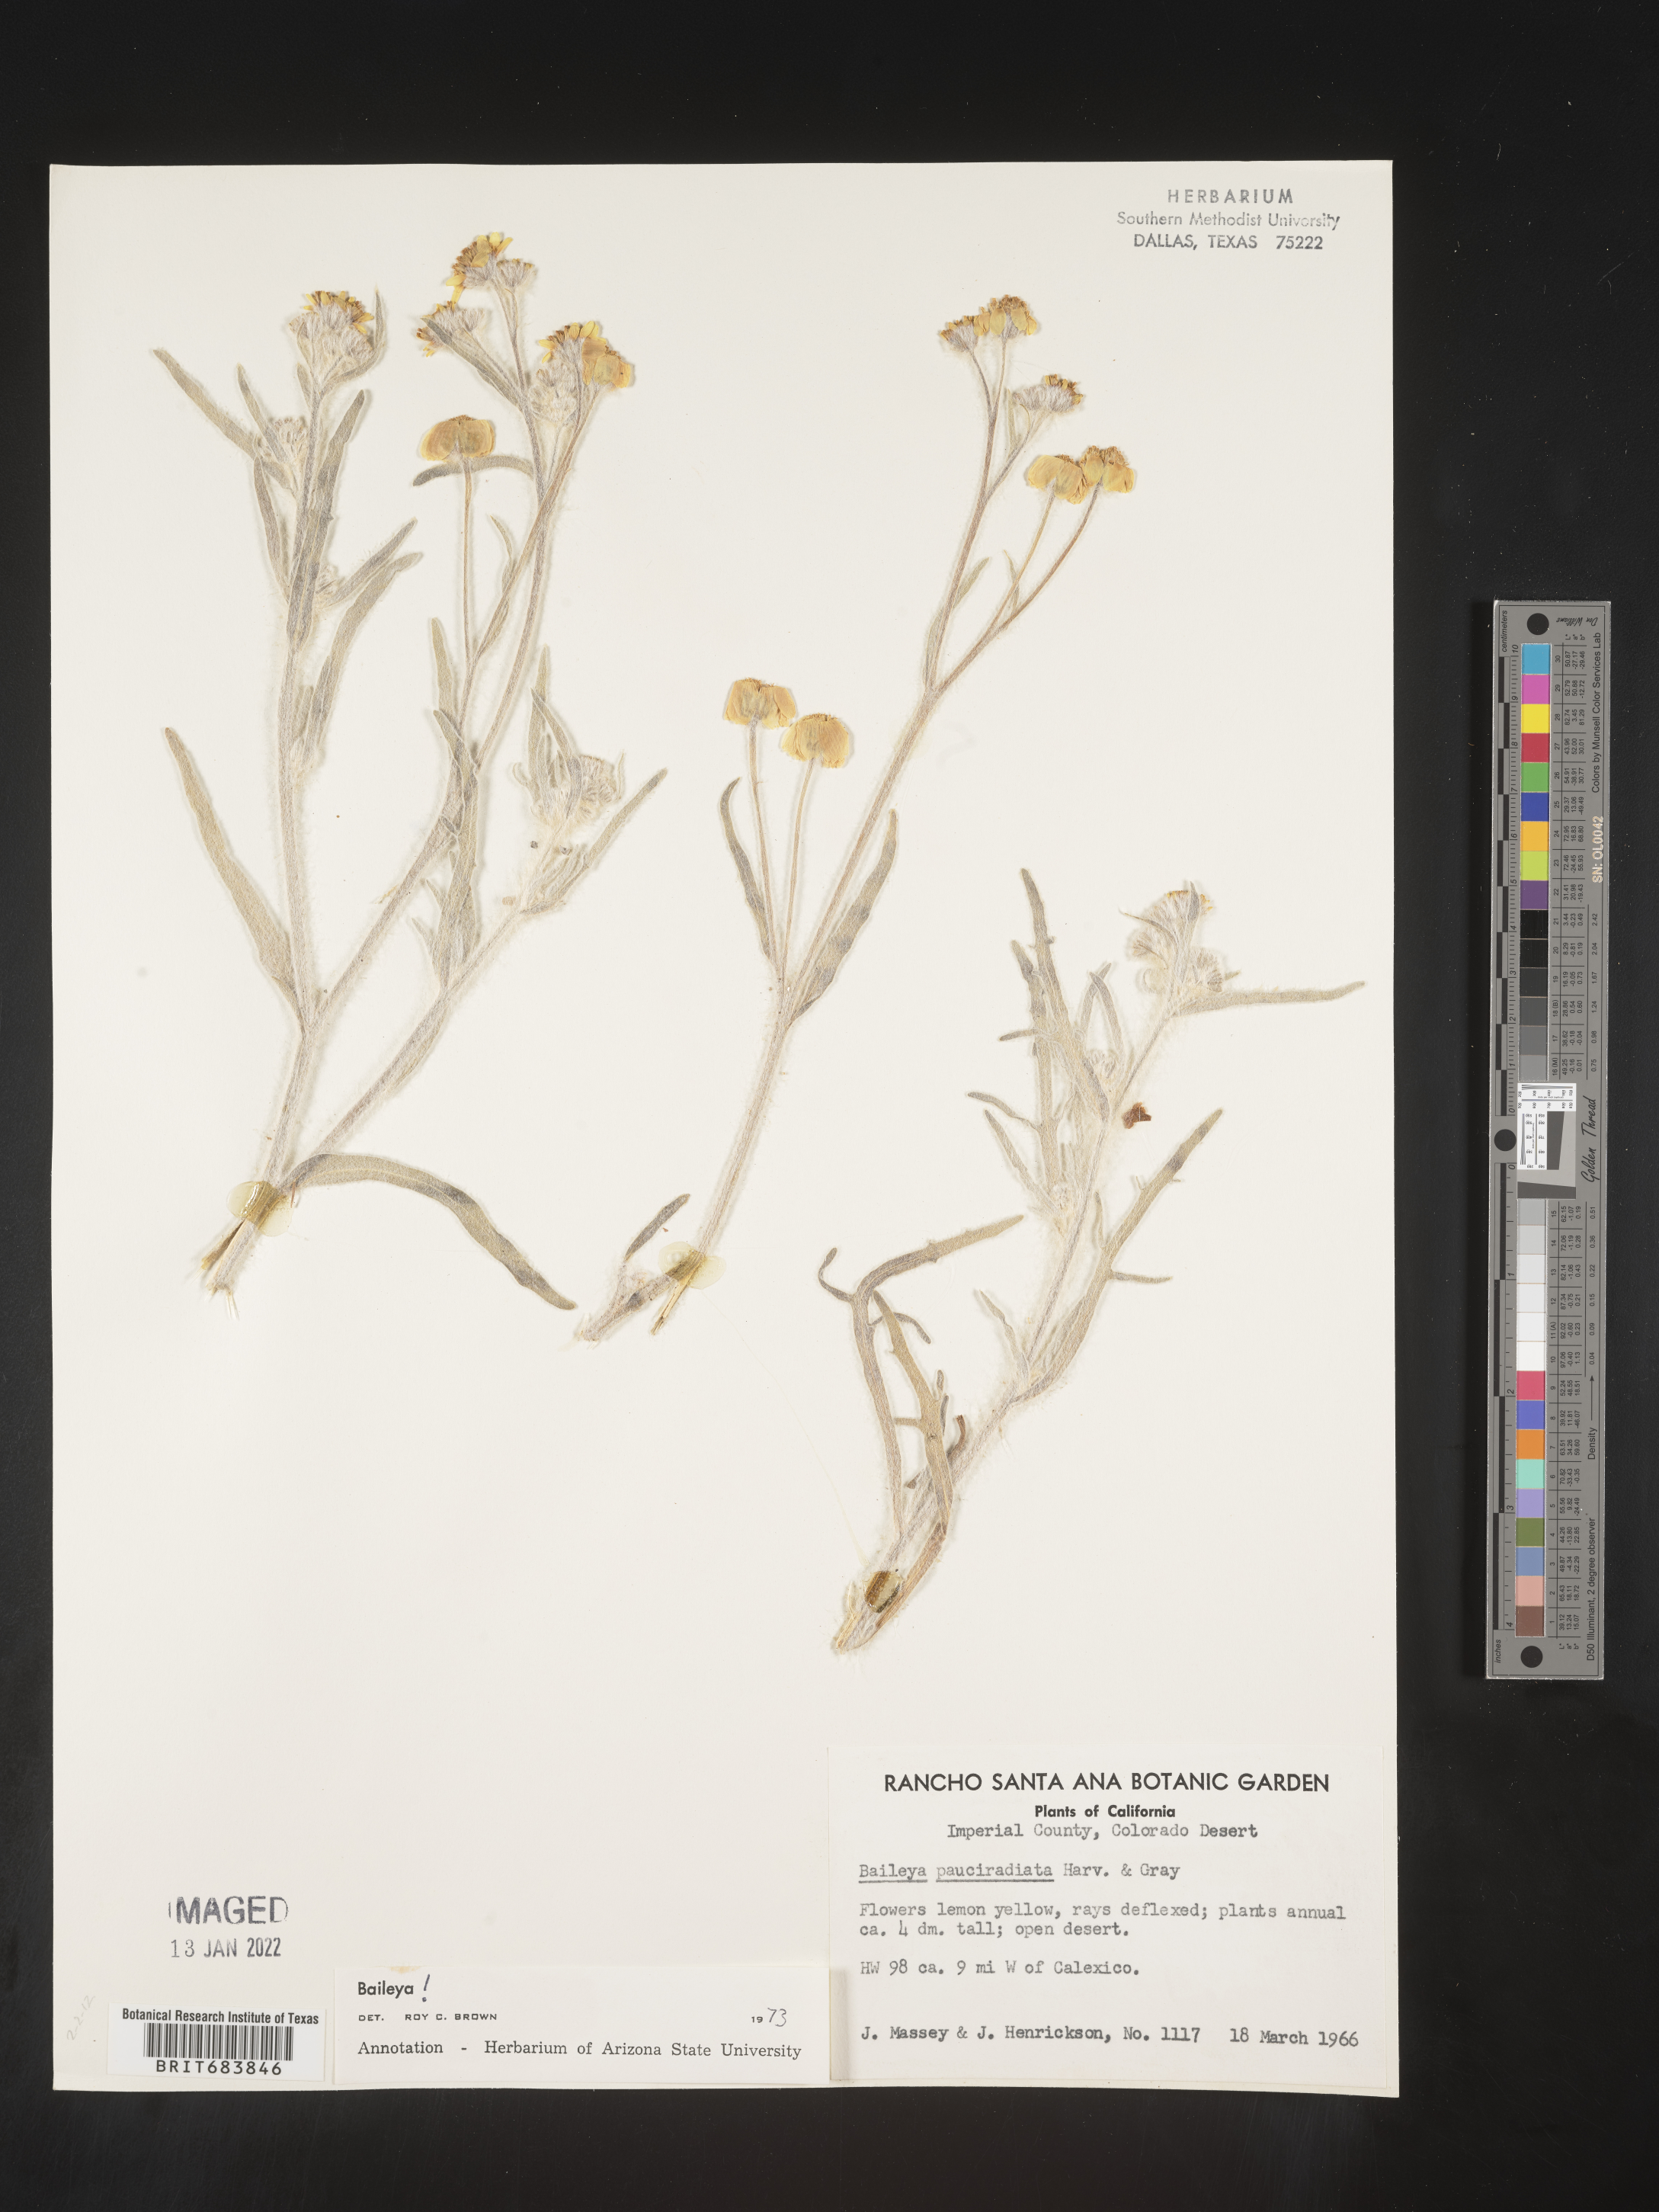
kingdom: Plantae
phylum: Tracheophyta
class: Magnoliopsida
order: Asterales
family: Asteraceae
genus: Baileya
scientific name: Baileya pauciradiata
